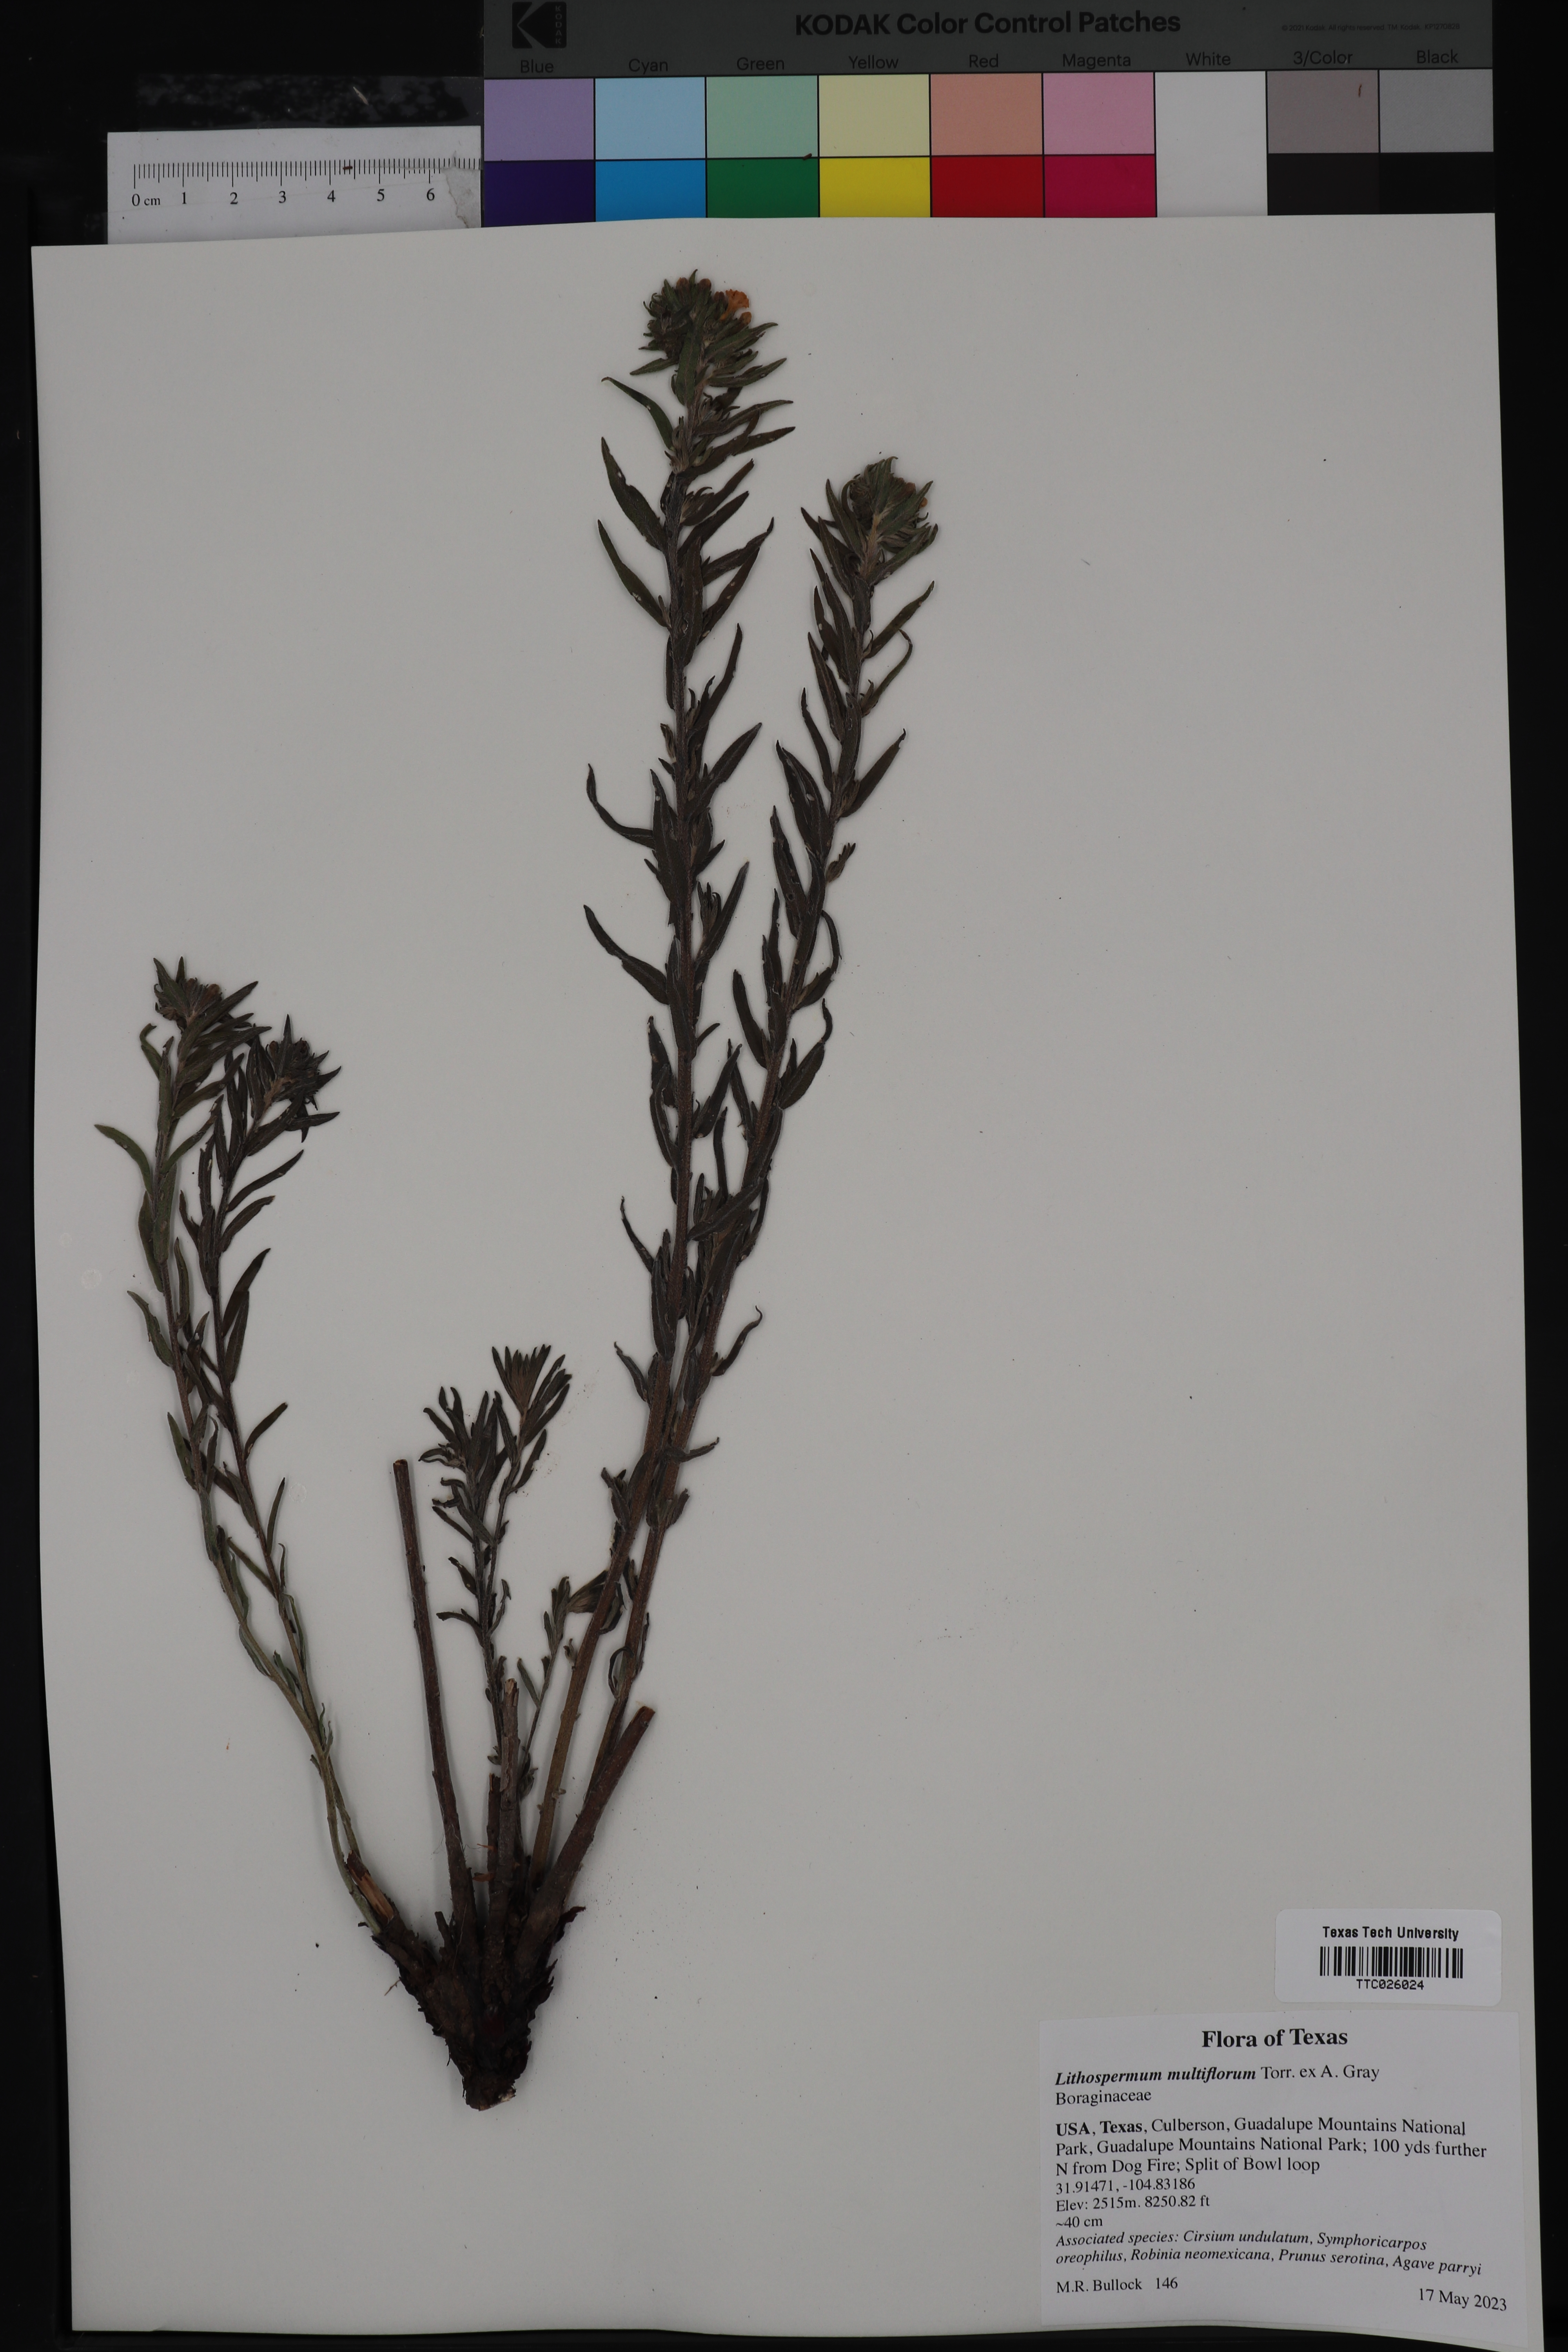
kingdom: Plantae
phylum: Tracheophyta
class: Magnoliopsida
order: Boraginales
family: Boraginaceae
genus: Lithospermum
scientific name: Lithospermum multiflorum
